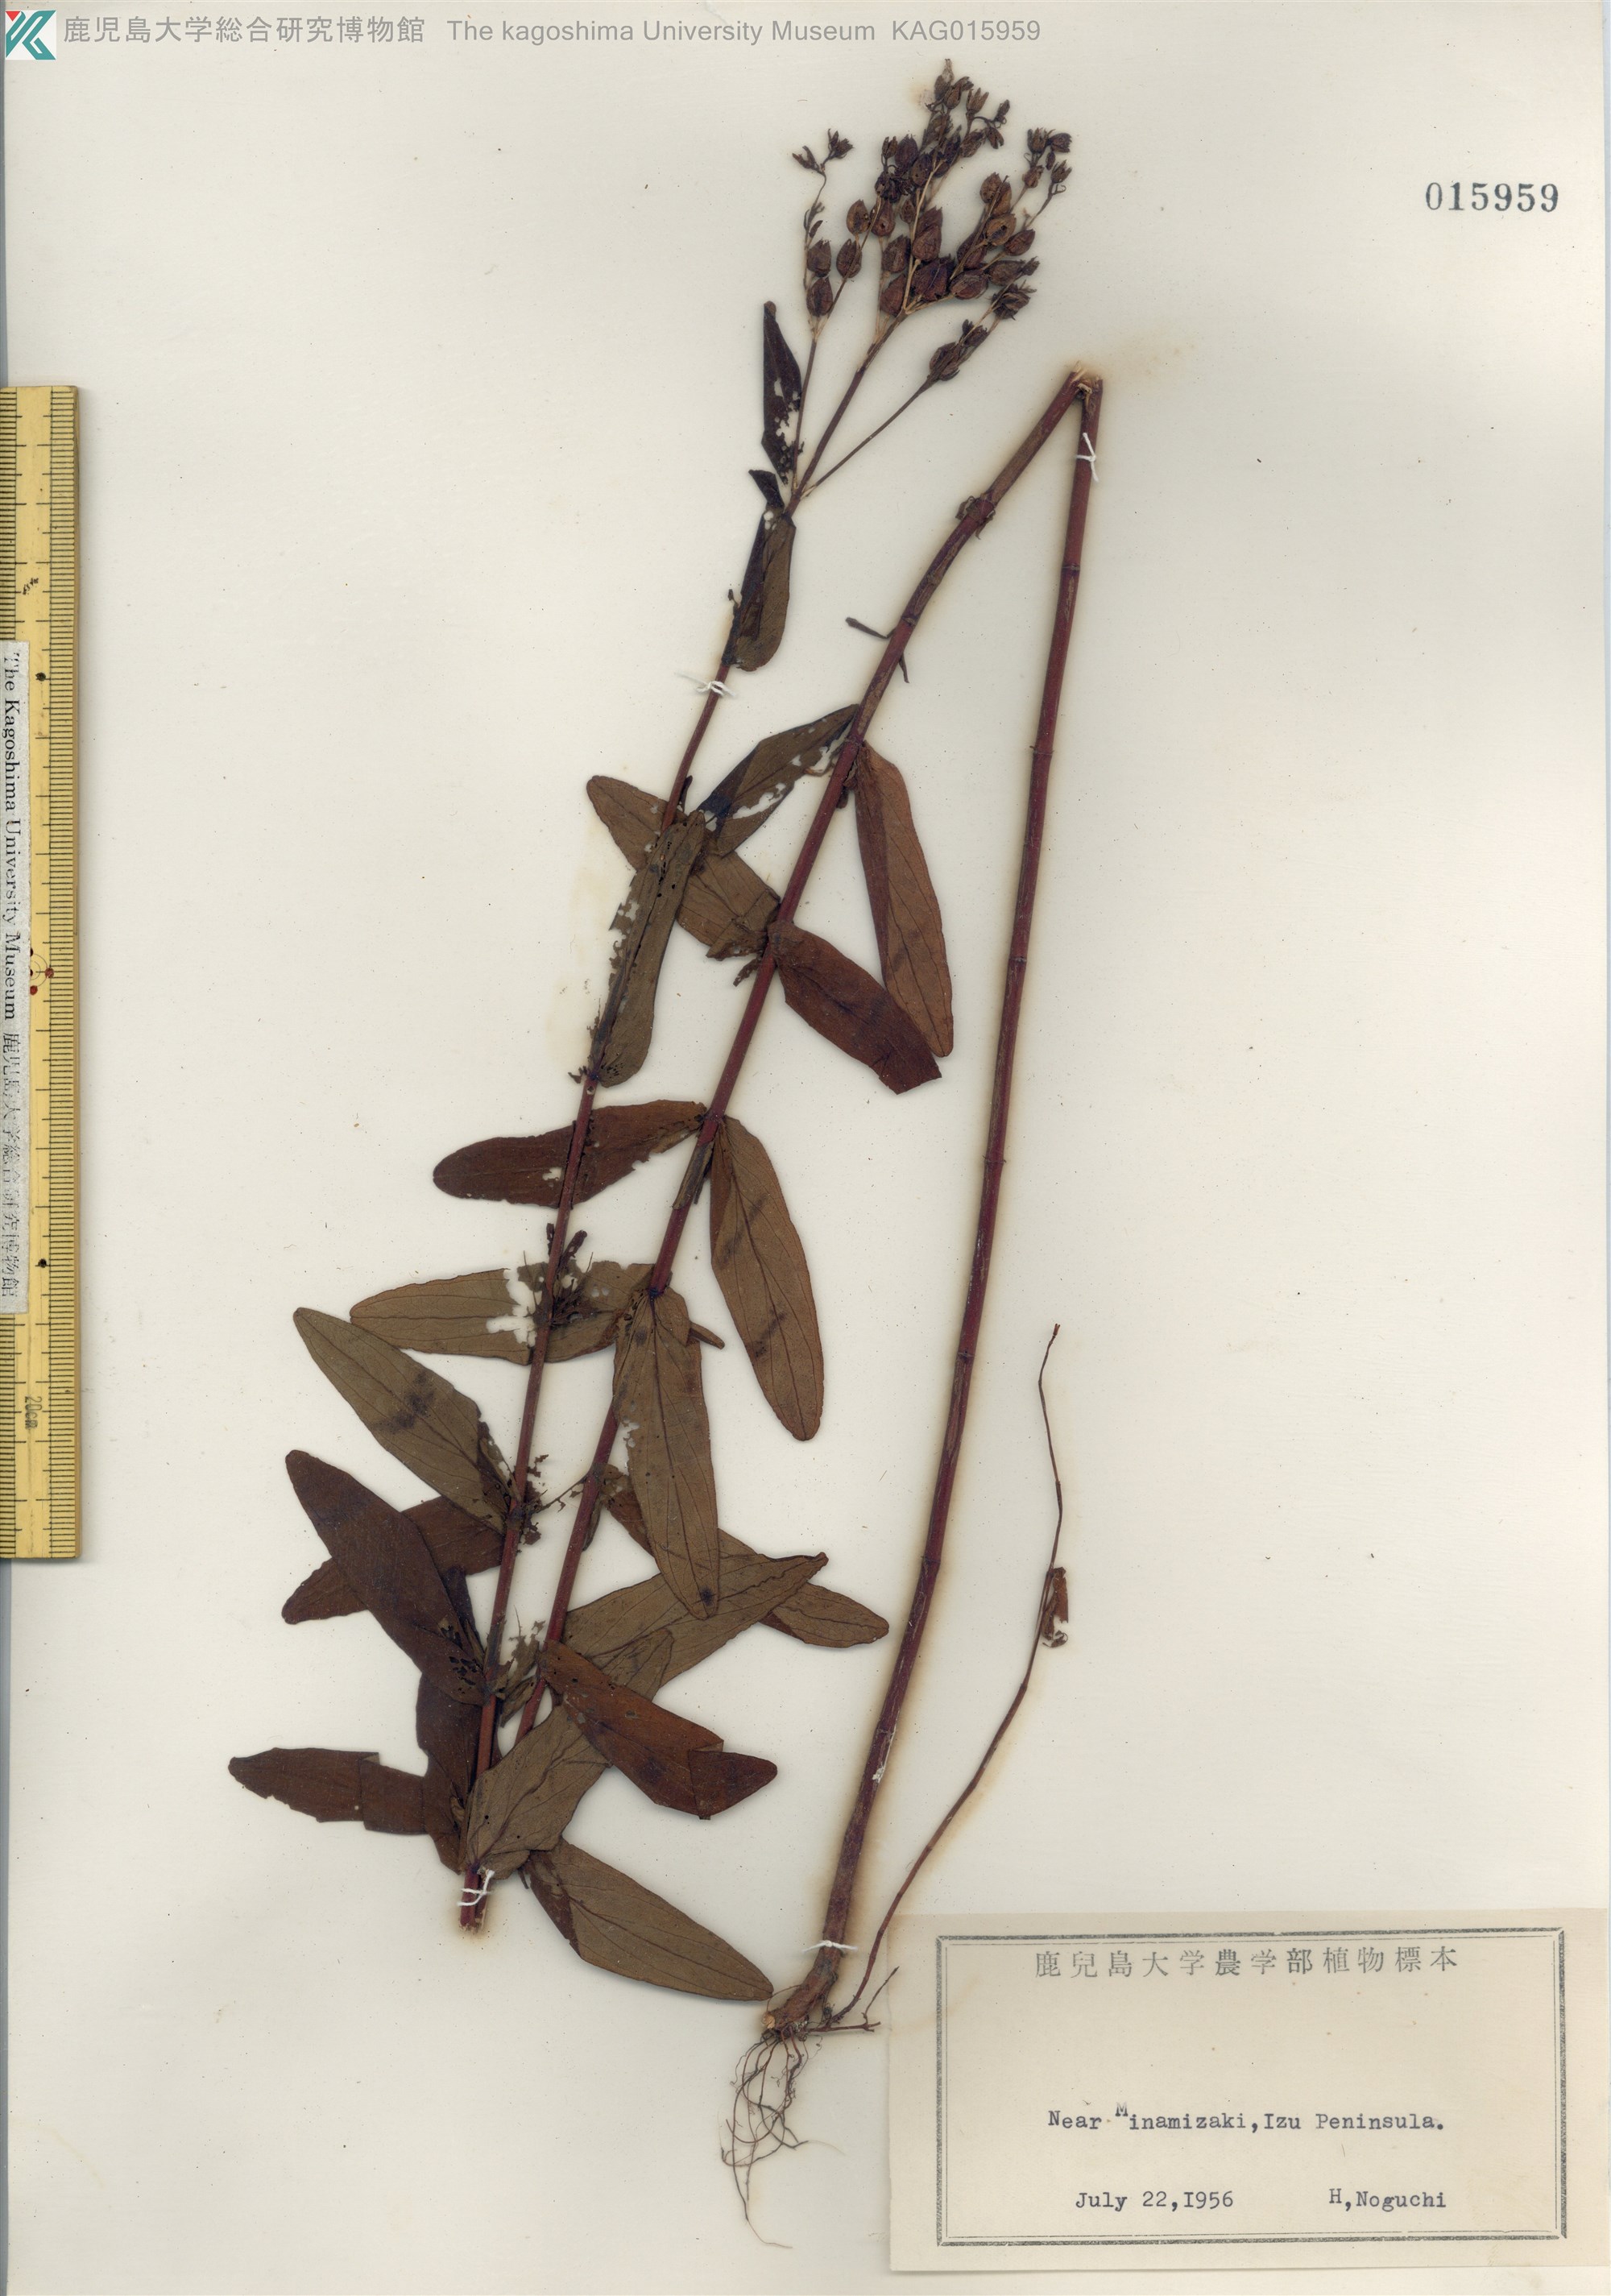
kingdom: Plantae
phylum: Tracheophyta
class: Magnoliopsida
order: Malpighiales
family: Hypericaceae
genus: Hypericum
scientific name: Hypericum erectum
